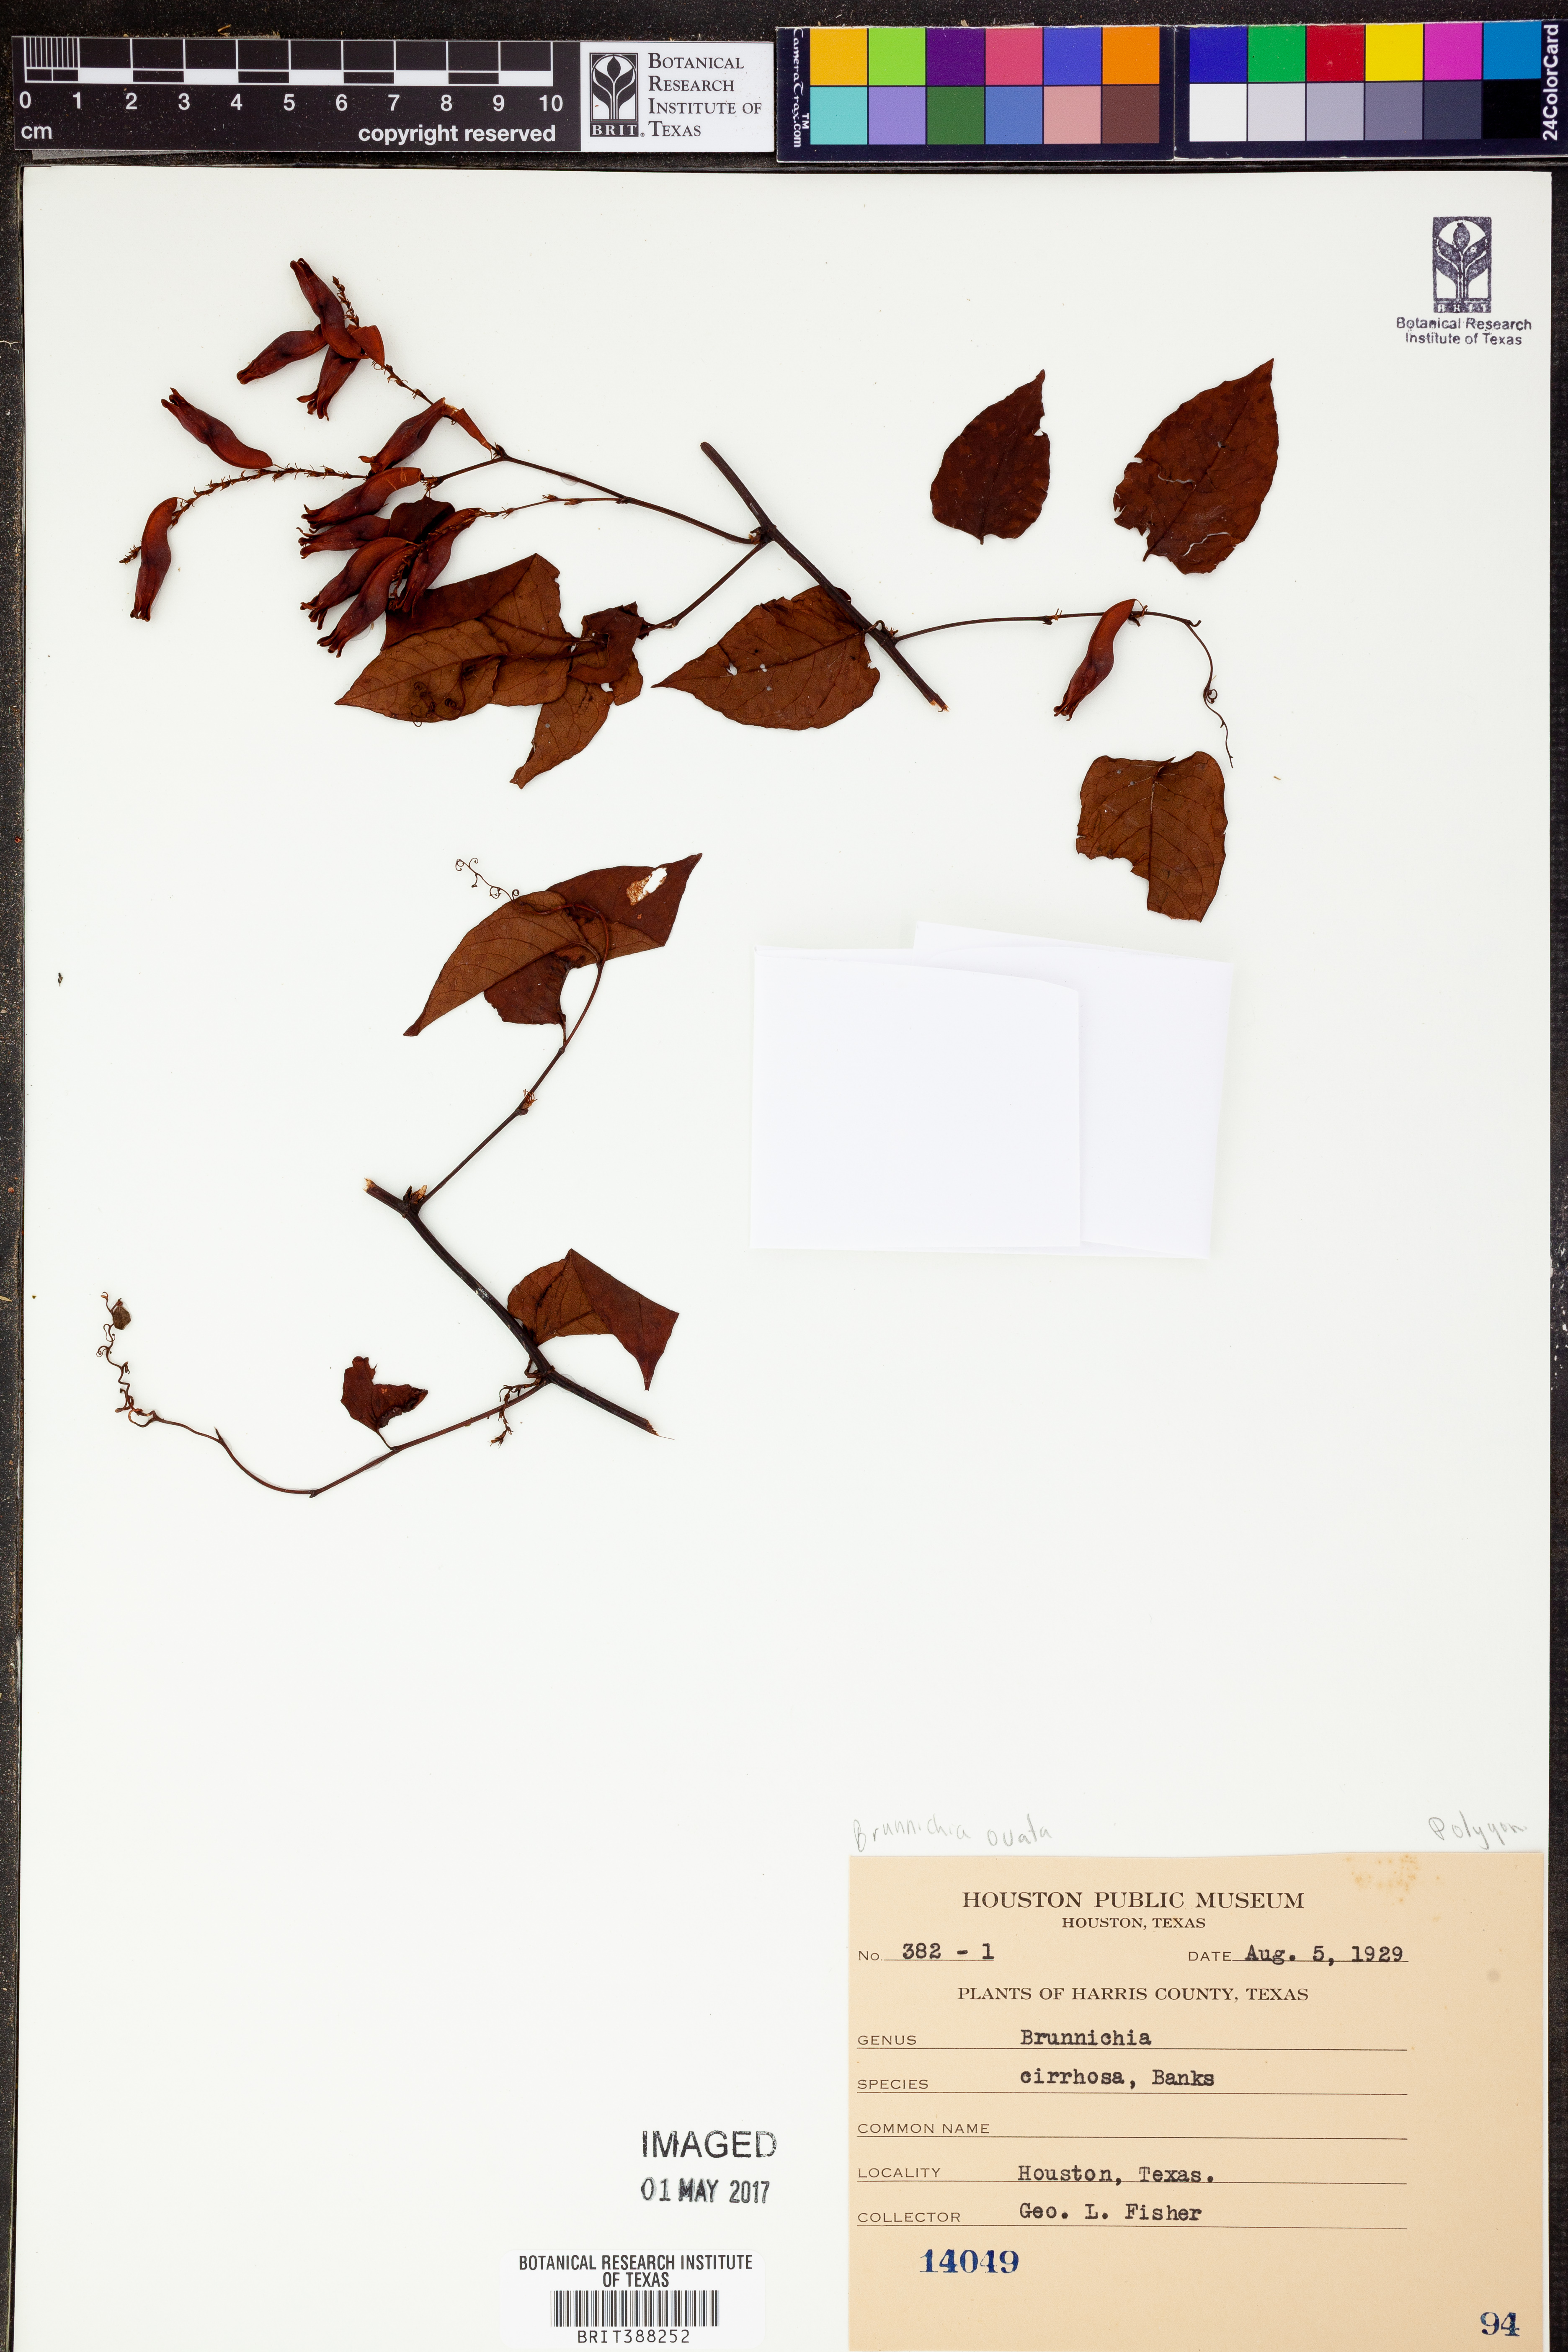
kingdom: Plantae
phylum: Tracheophyta
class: Magnoliopsida
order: Caryophyllales
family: Polygonaceae
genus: Brunnichia
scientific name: Brunnichia ovata
